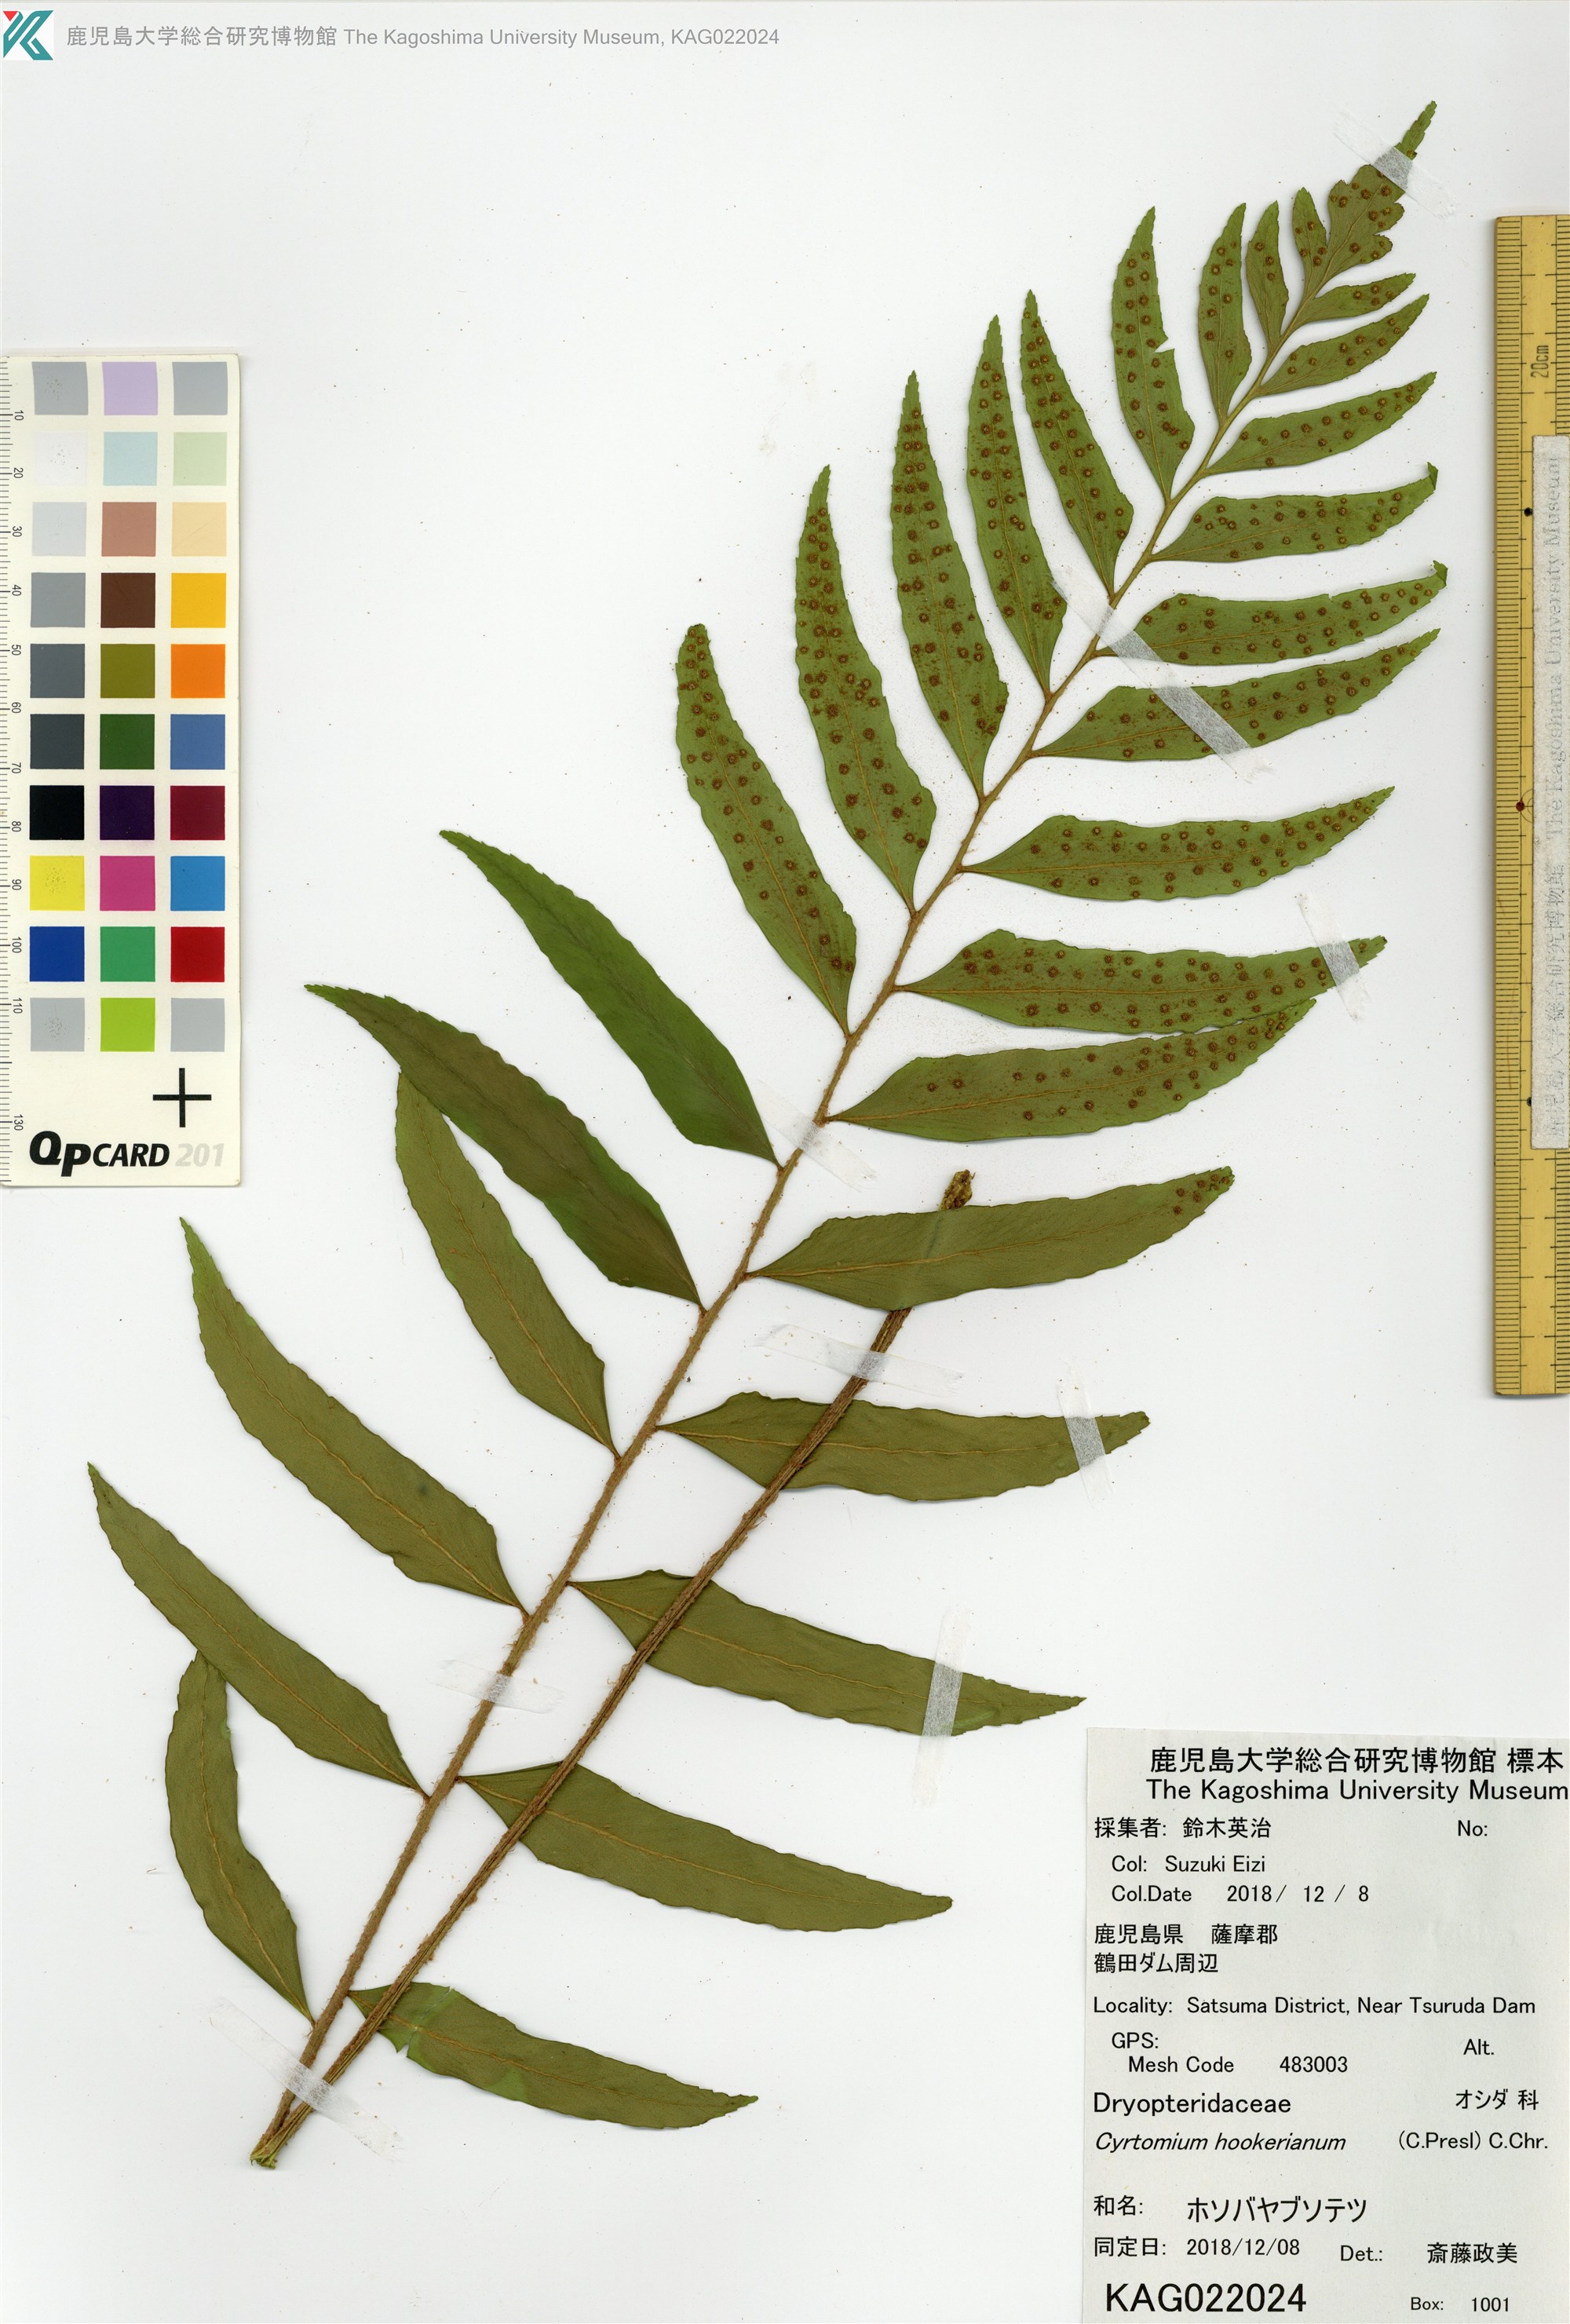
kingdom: Plantae
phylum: Tracheophyta
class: Polypodiopsida
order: Polypodiales
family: Dryopteridaceae
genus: Polystichum
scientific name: Polystichum hookerianum
